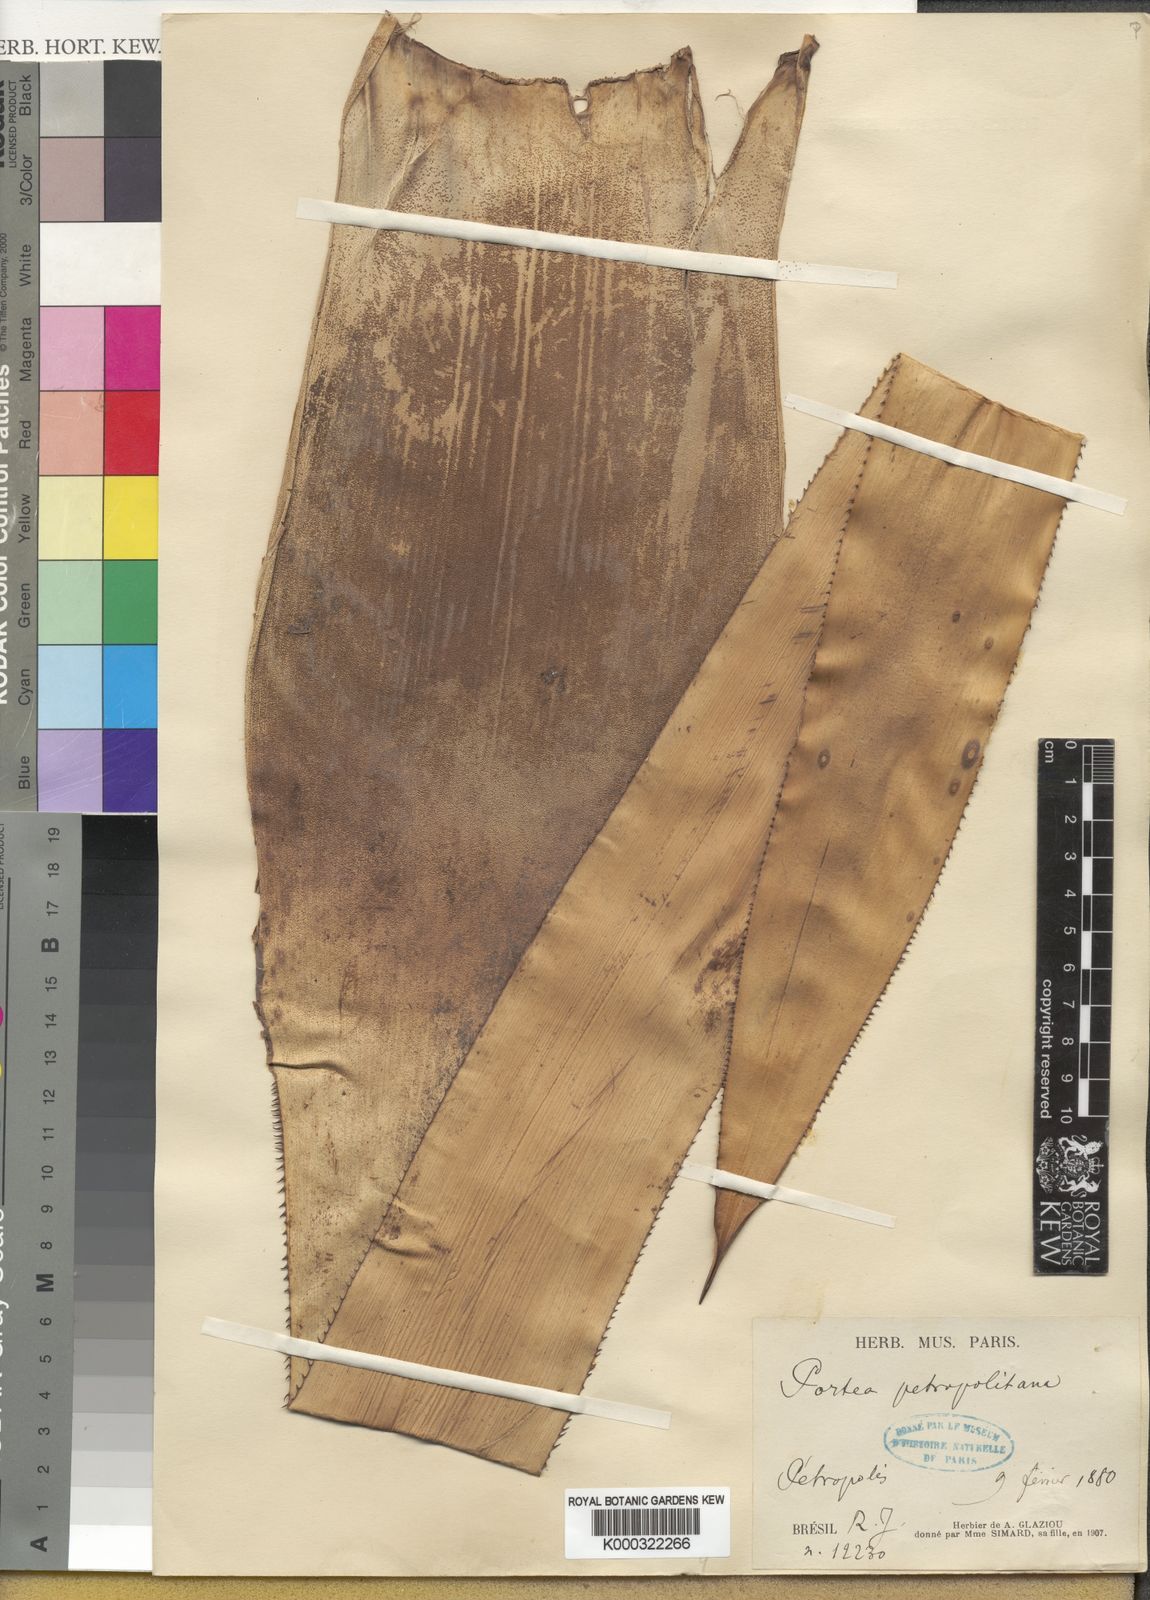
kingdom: Plantae
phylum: Tracheophyta
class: Liliopsida
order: Poales
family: Bromeliaceae
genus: Portea
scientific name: Portea petropolitana
